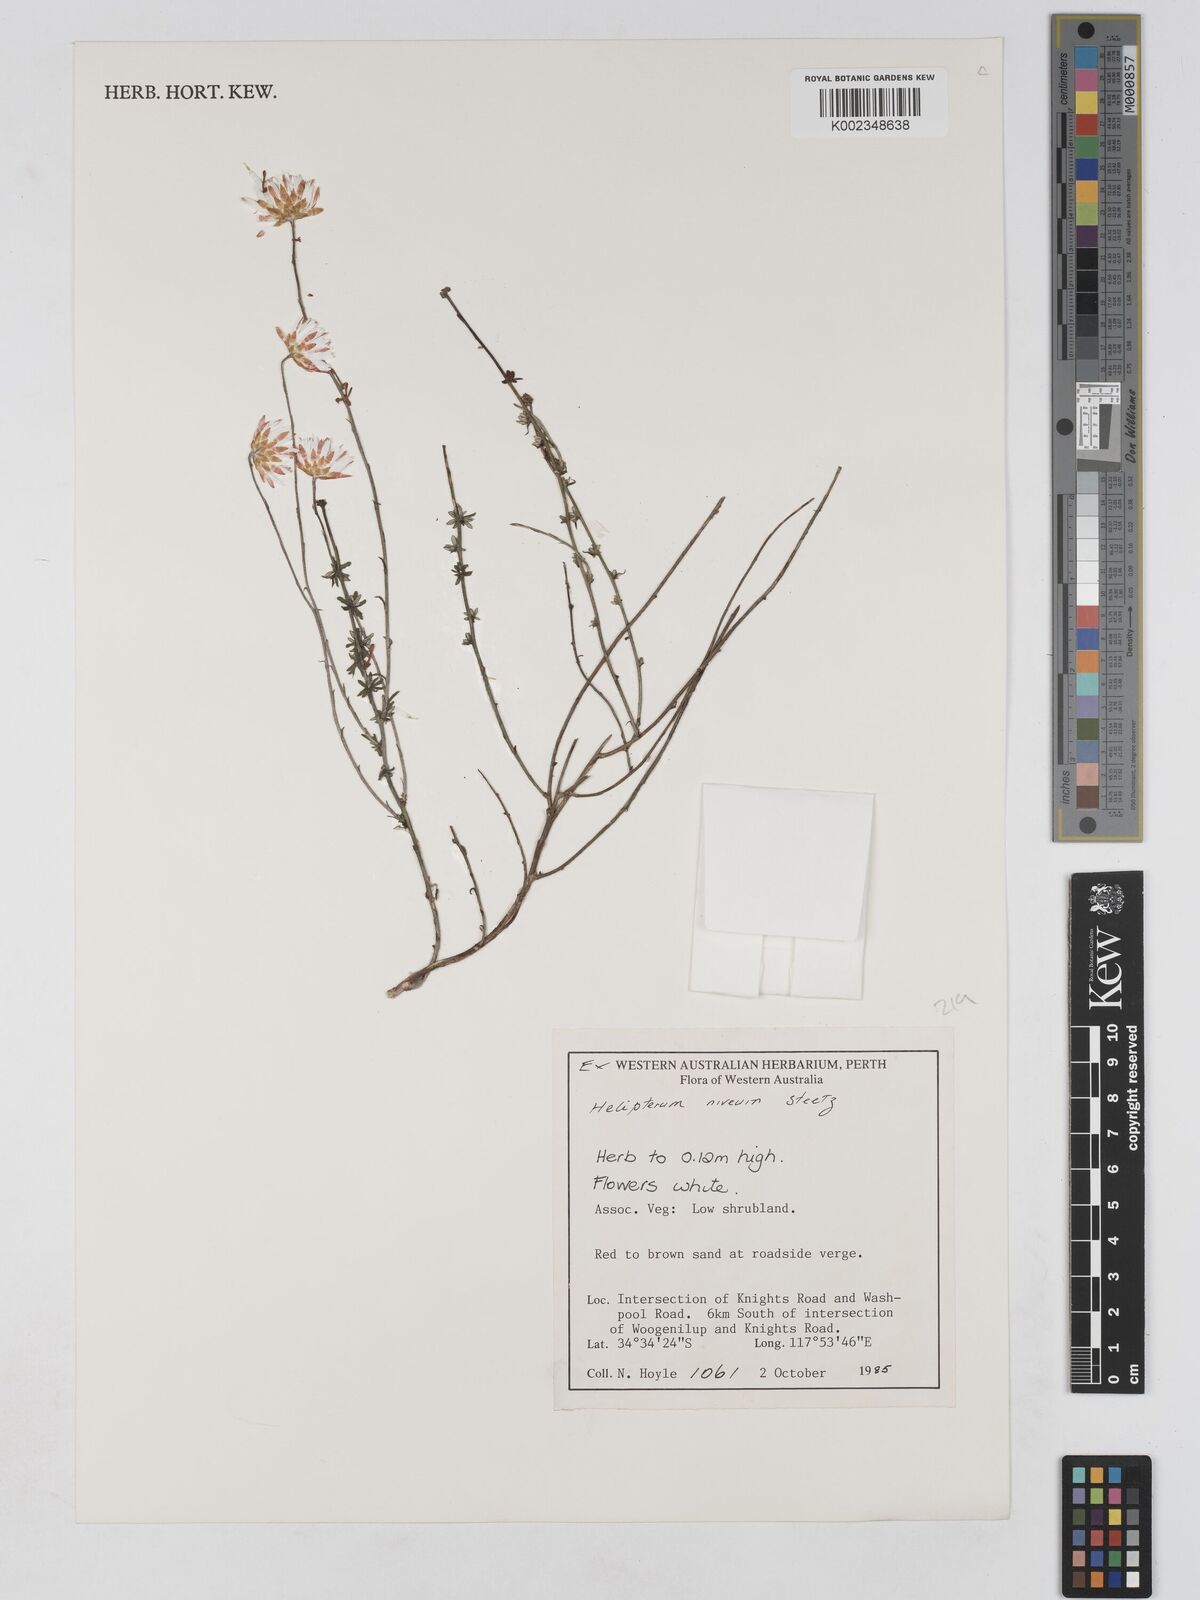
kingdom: Plantae
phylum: Tracheophyta
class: Magnoliopsida
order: Asterales
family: Asteraceae
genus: Argentipallium
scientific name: Argentipallium niveum
